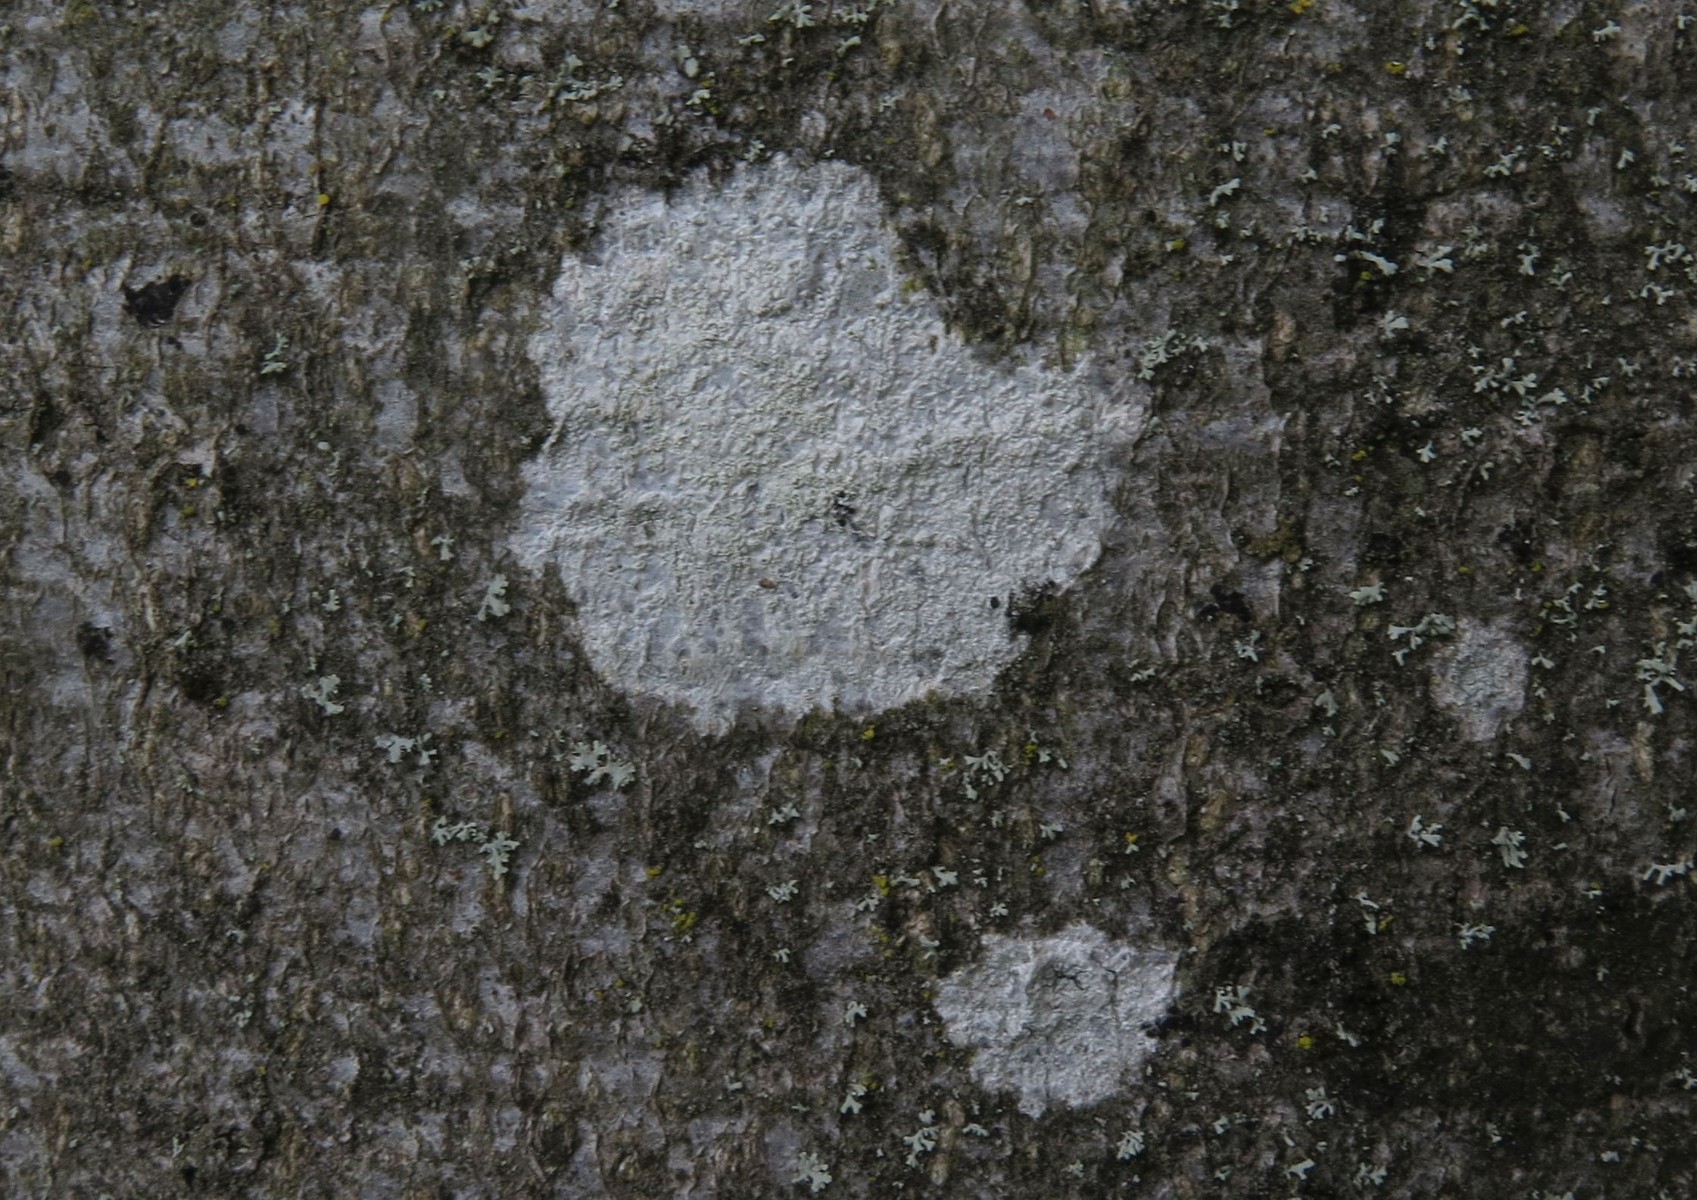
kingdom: Fungi
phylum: Ascomycota
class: Lecanoromycetes
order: Ostropales
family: Phlyctidaceae
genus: Phlyctis
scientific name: Phlyctis argena
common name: almindelig sølvlav
